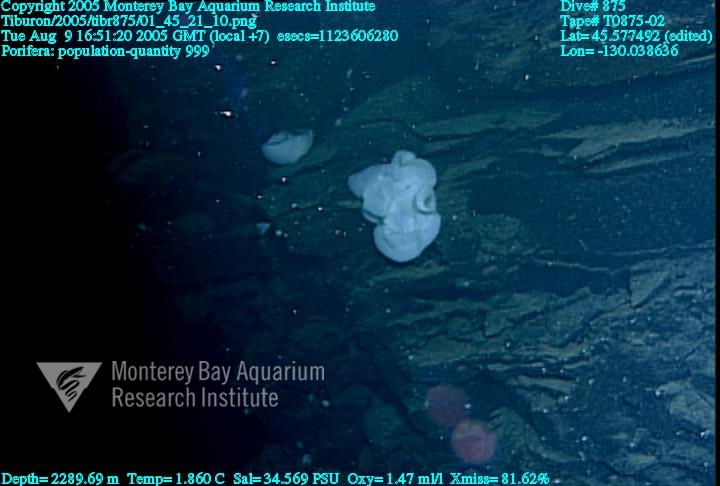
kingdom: Animalia
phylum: Porifera
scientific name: Porifera
